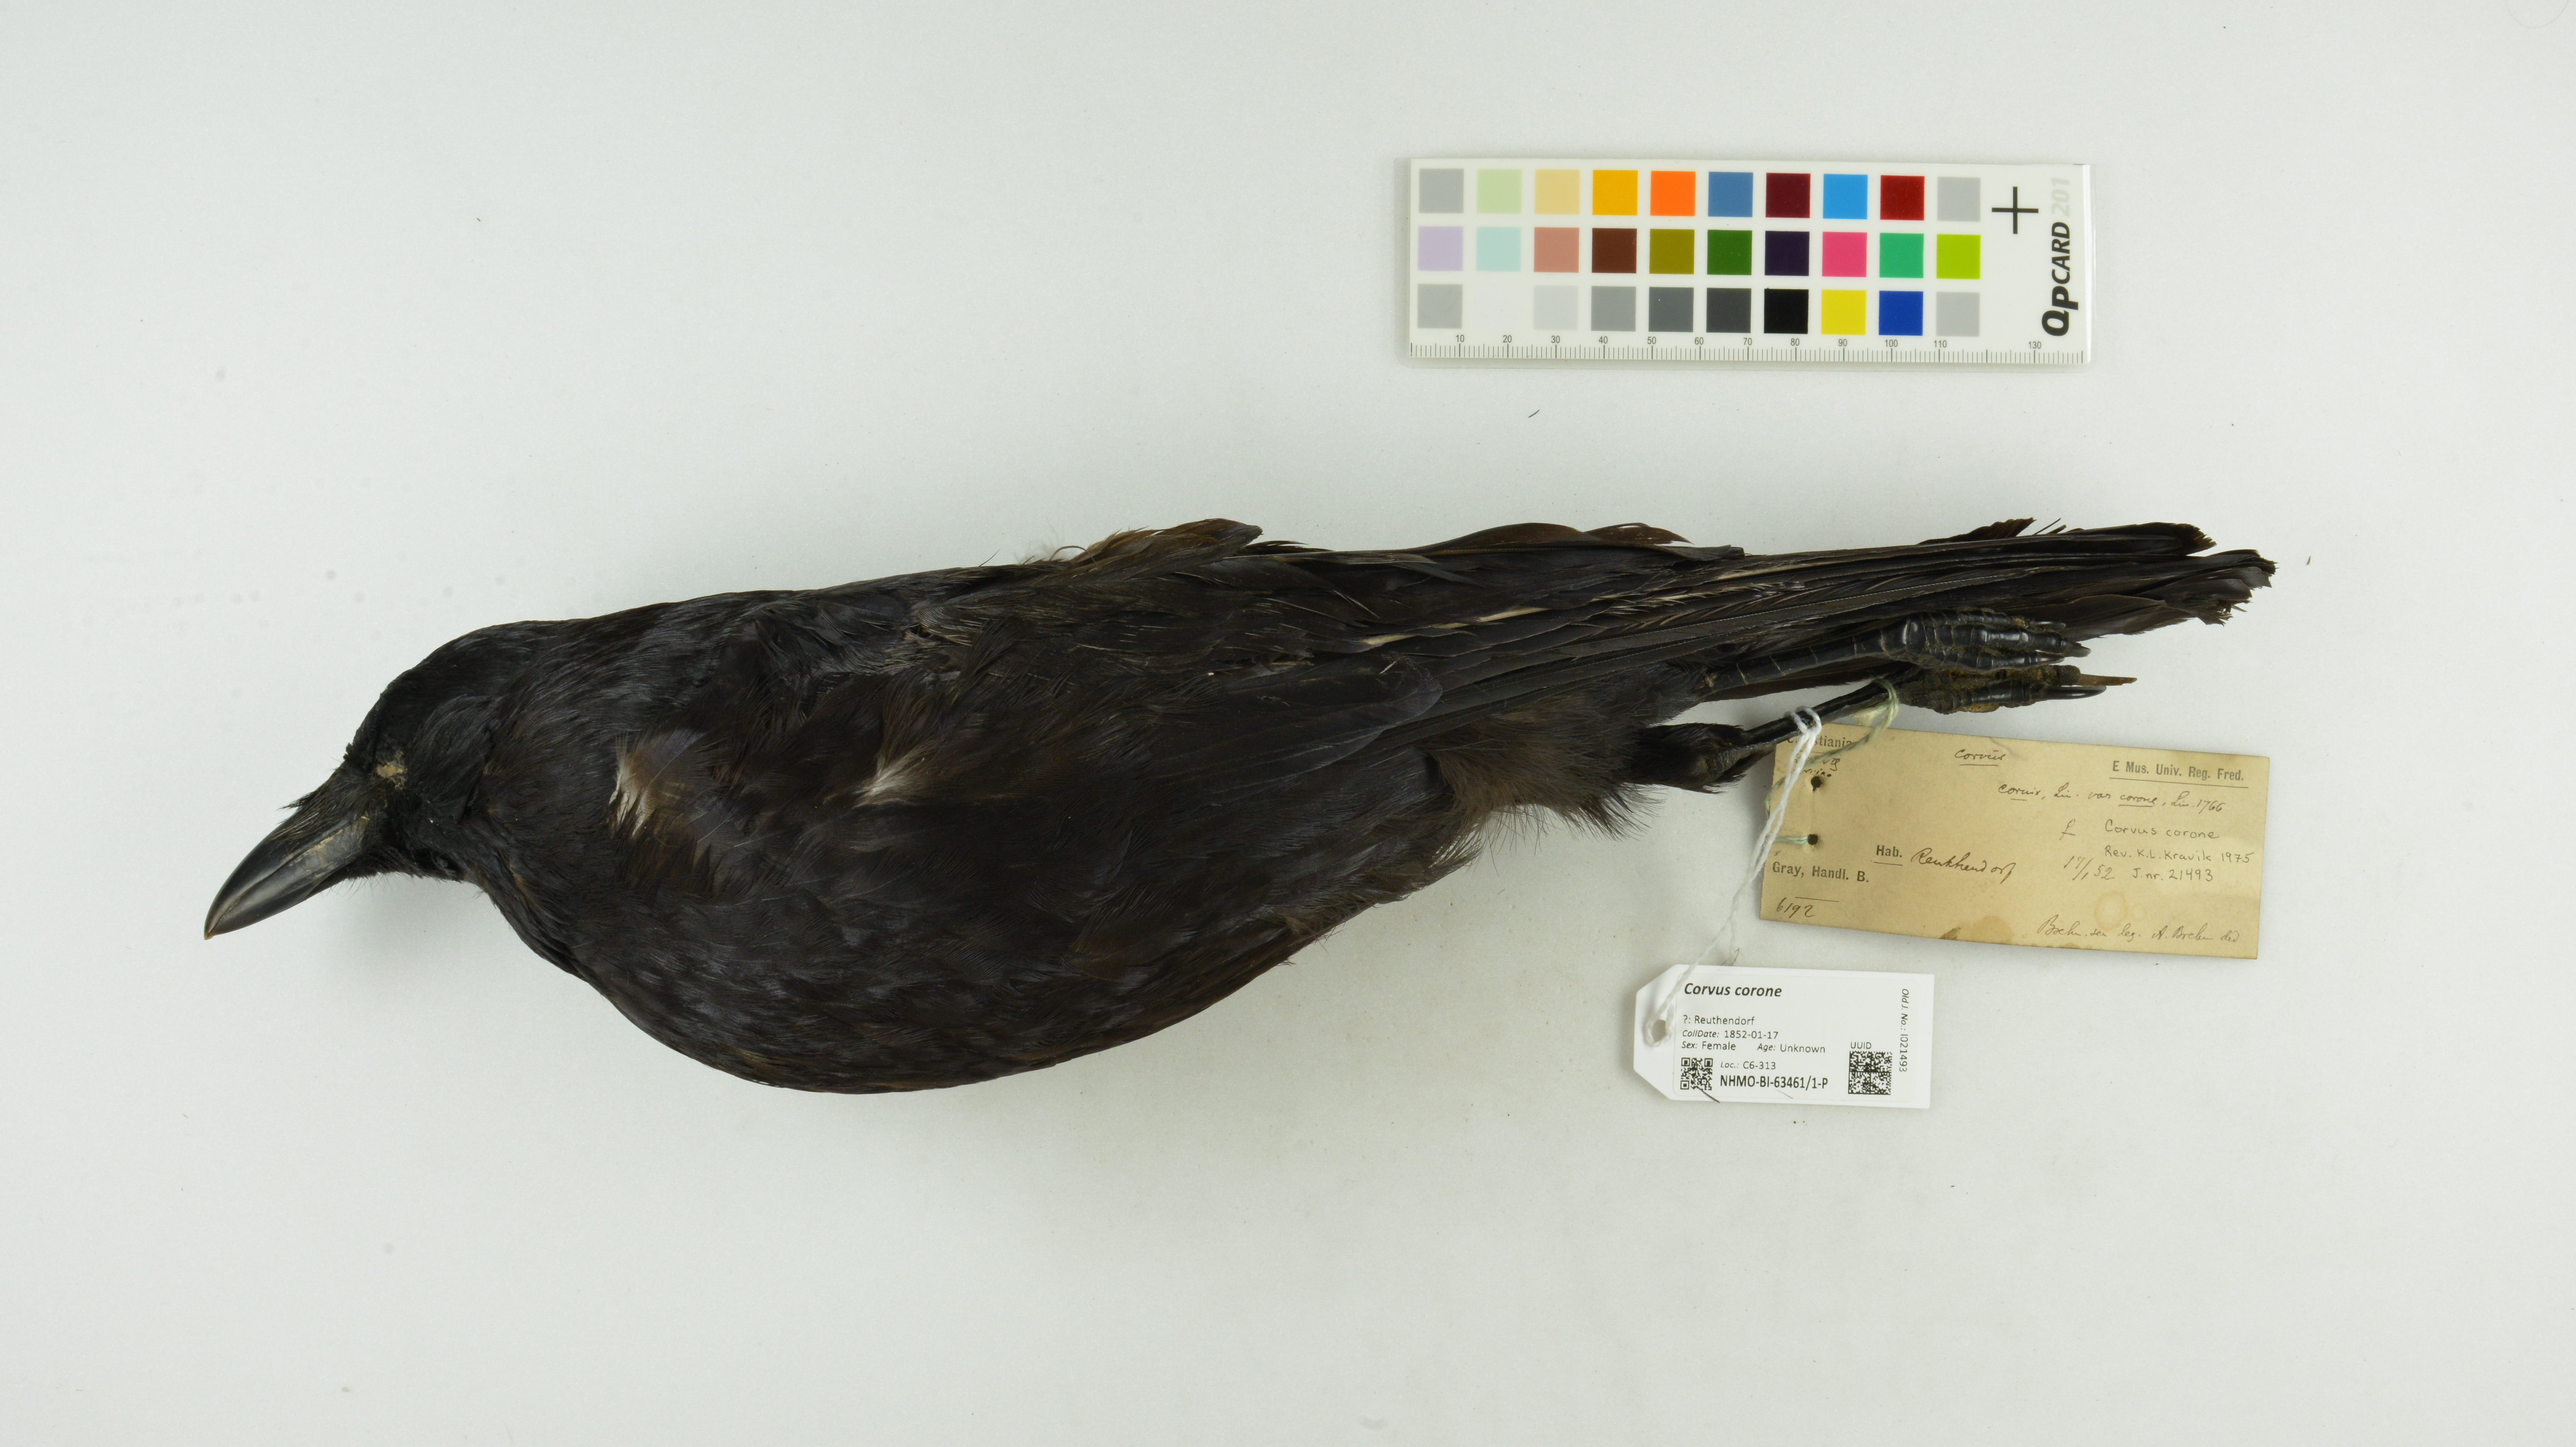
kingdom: Animalia
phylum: Chordata
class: Aves
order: Passeriformes
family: Corvidae
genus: Corvus
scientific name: Corvus corone
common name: Carrion crow
